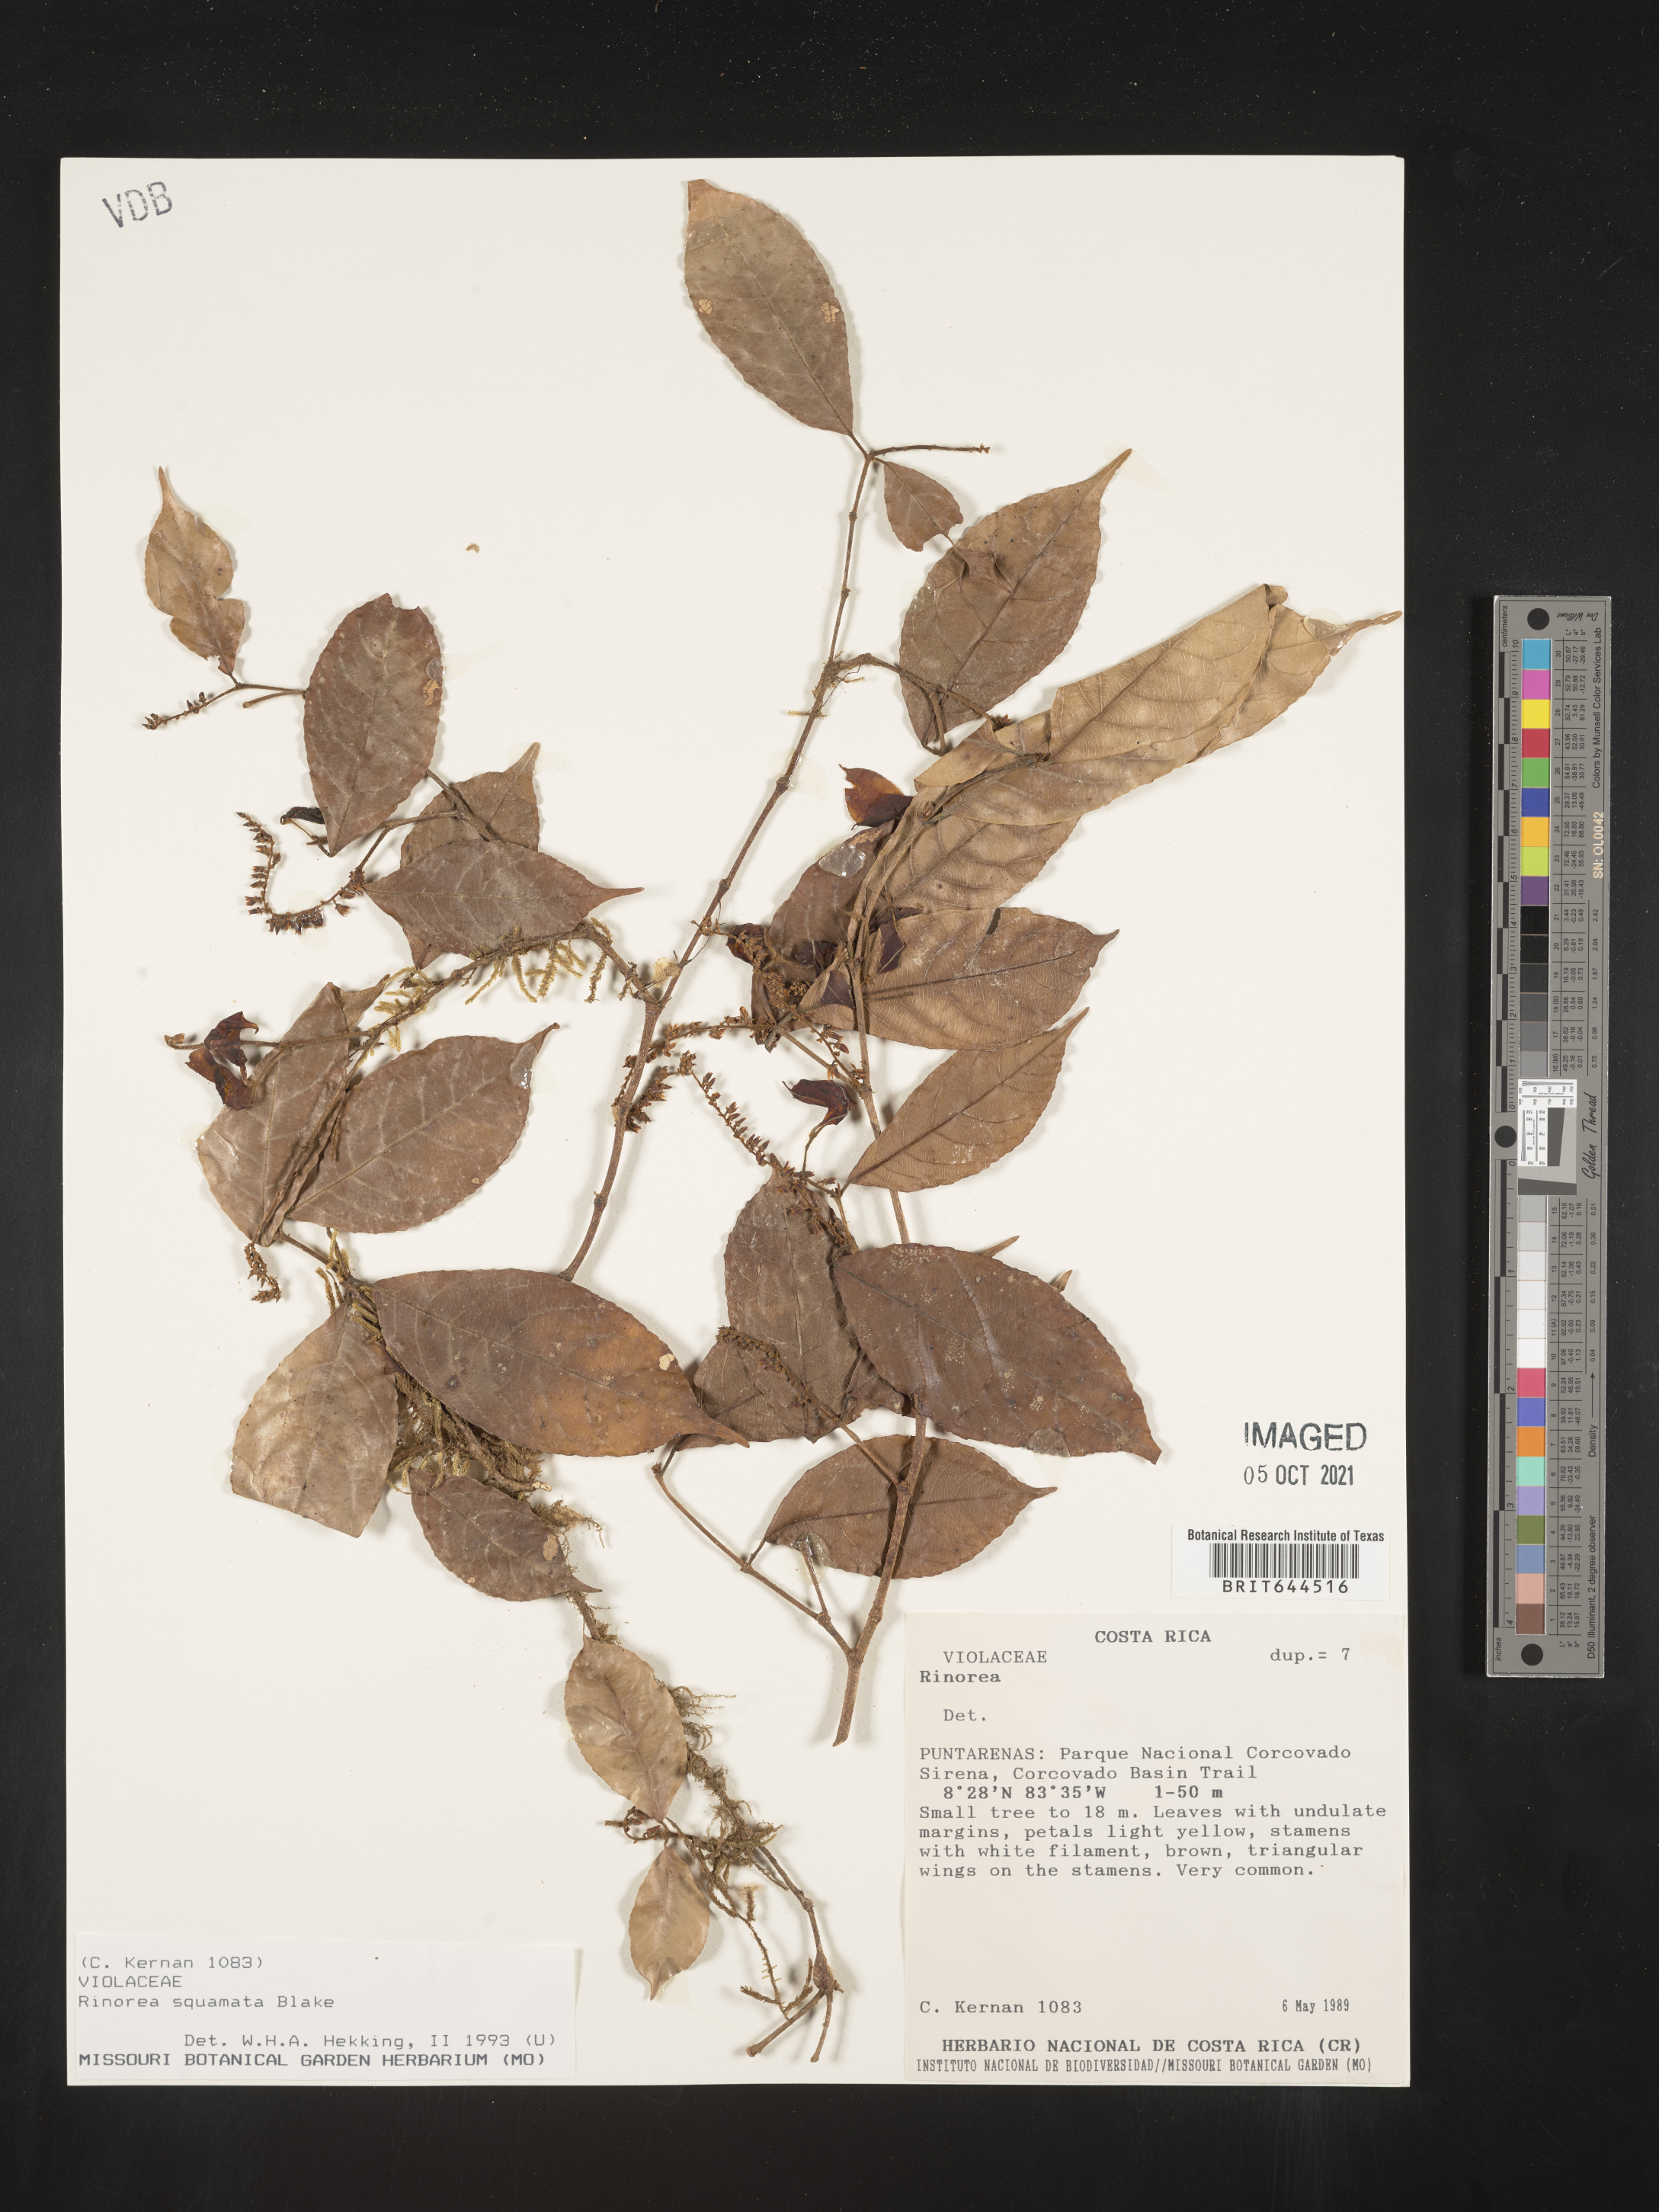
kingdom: Plantae
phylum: Tracheophyta
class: Magnoliopsida
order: Malpighiales
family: Violaceae
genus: Rinorea
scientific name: Rinorea
